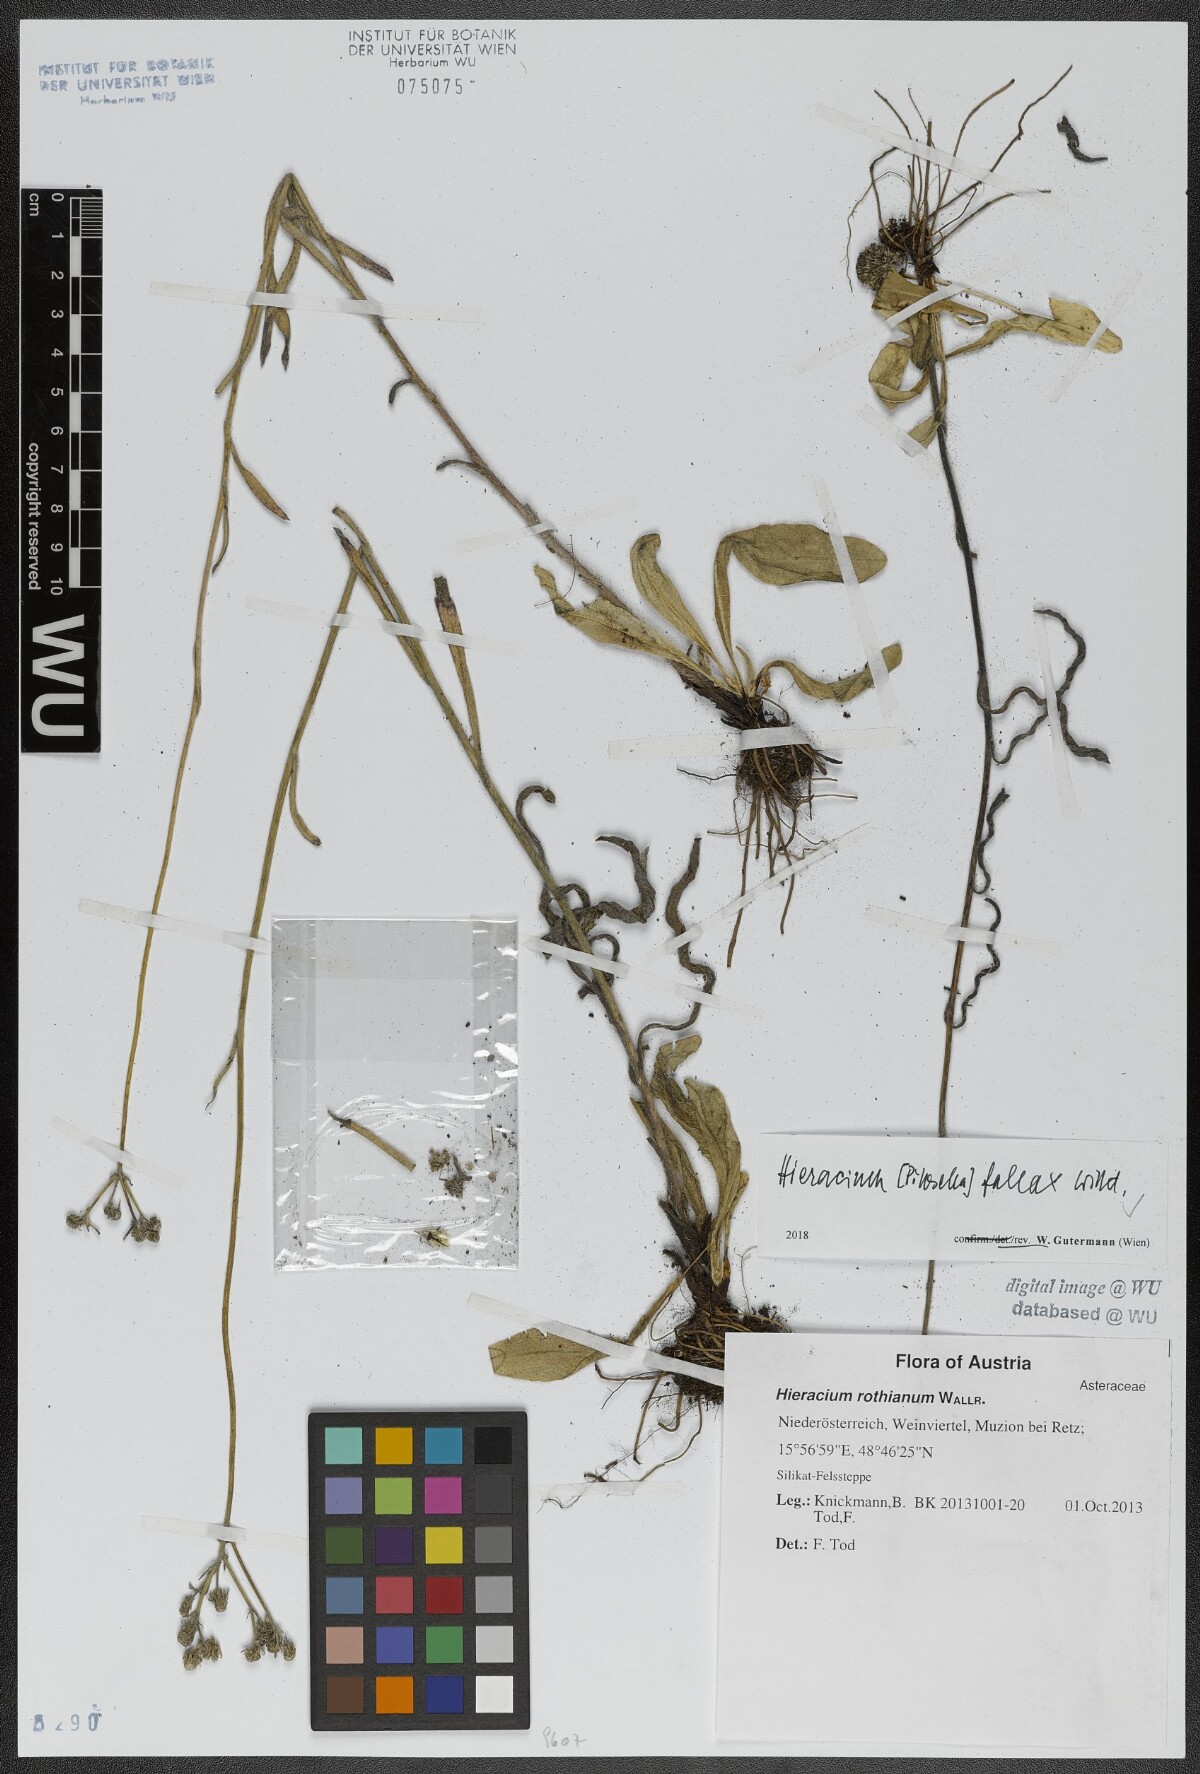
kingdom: Plantae
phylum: Tracheophyta
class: Magnoliopsida
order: Asterales
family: Asteraceae
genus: Pilosella
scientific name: Pilosella fallax
